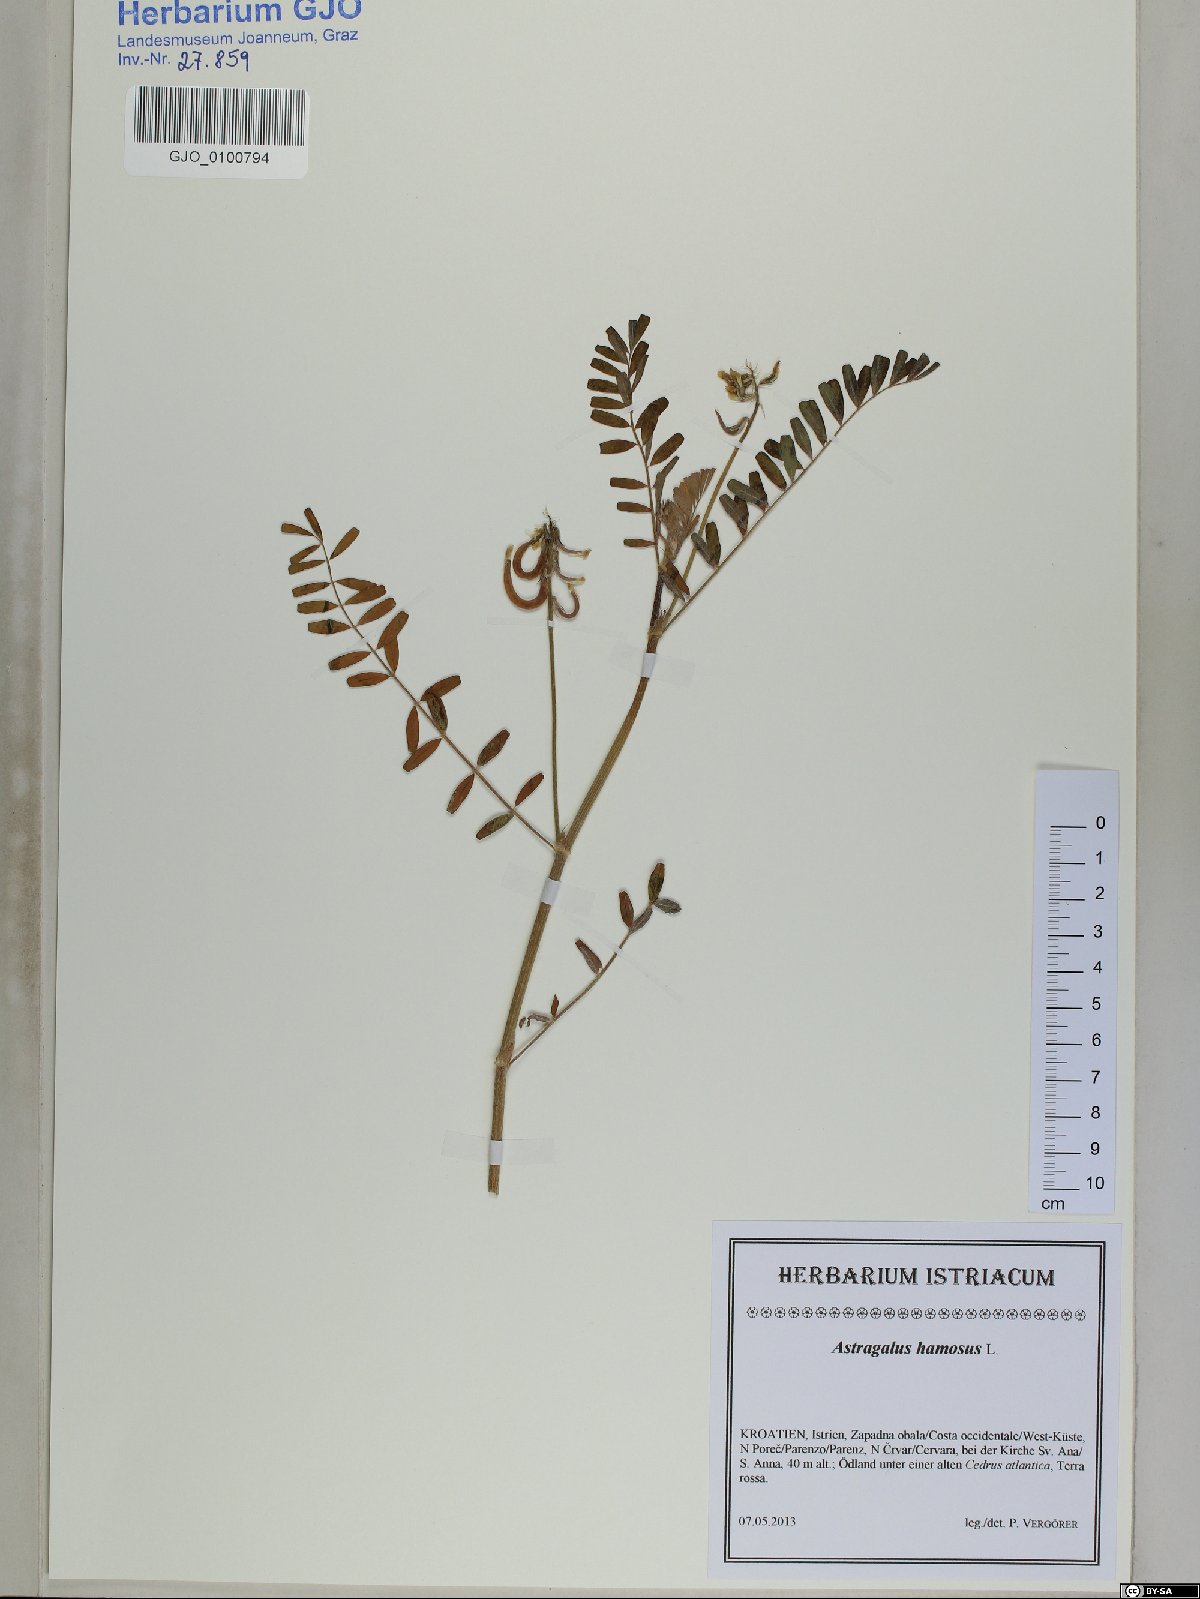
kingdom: Plantae
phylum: Tracheophyta
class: Magnoliopsida
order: Fabales
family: Fabaceae
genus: Astragalus
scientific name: Astragalus hamosus
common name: European milkvetch
